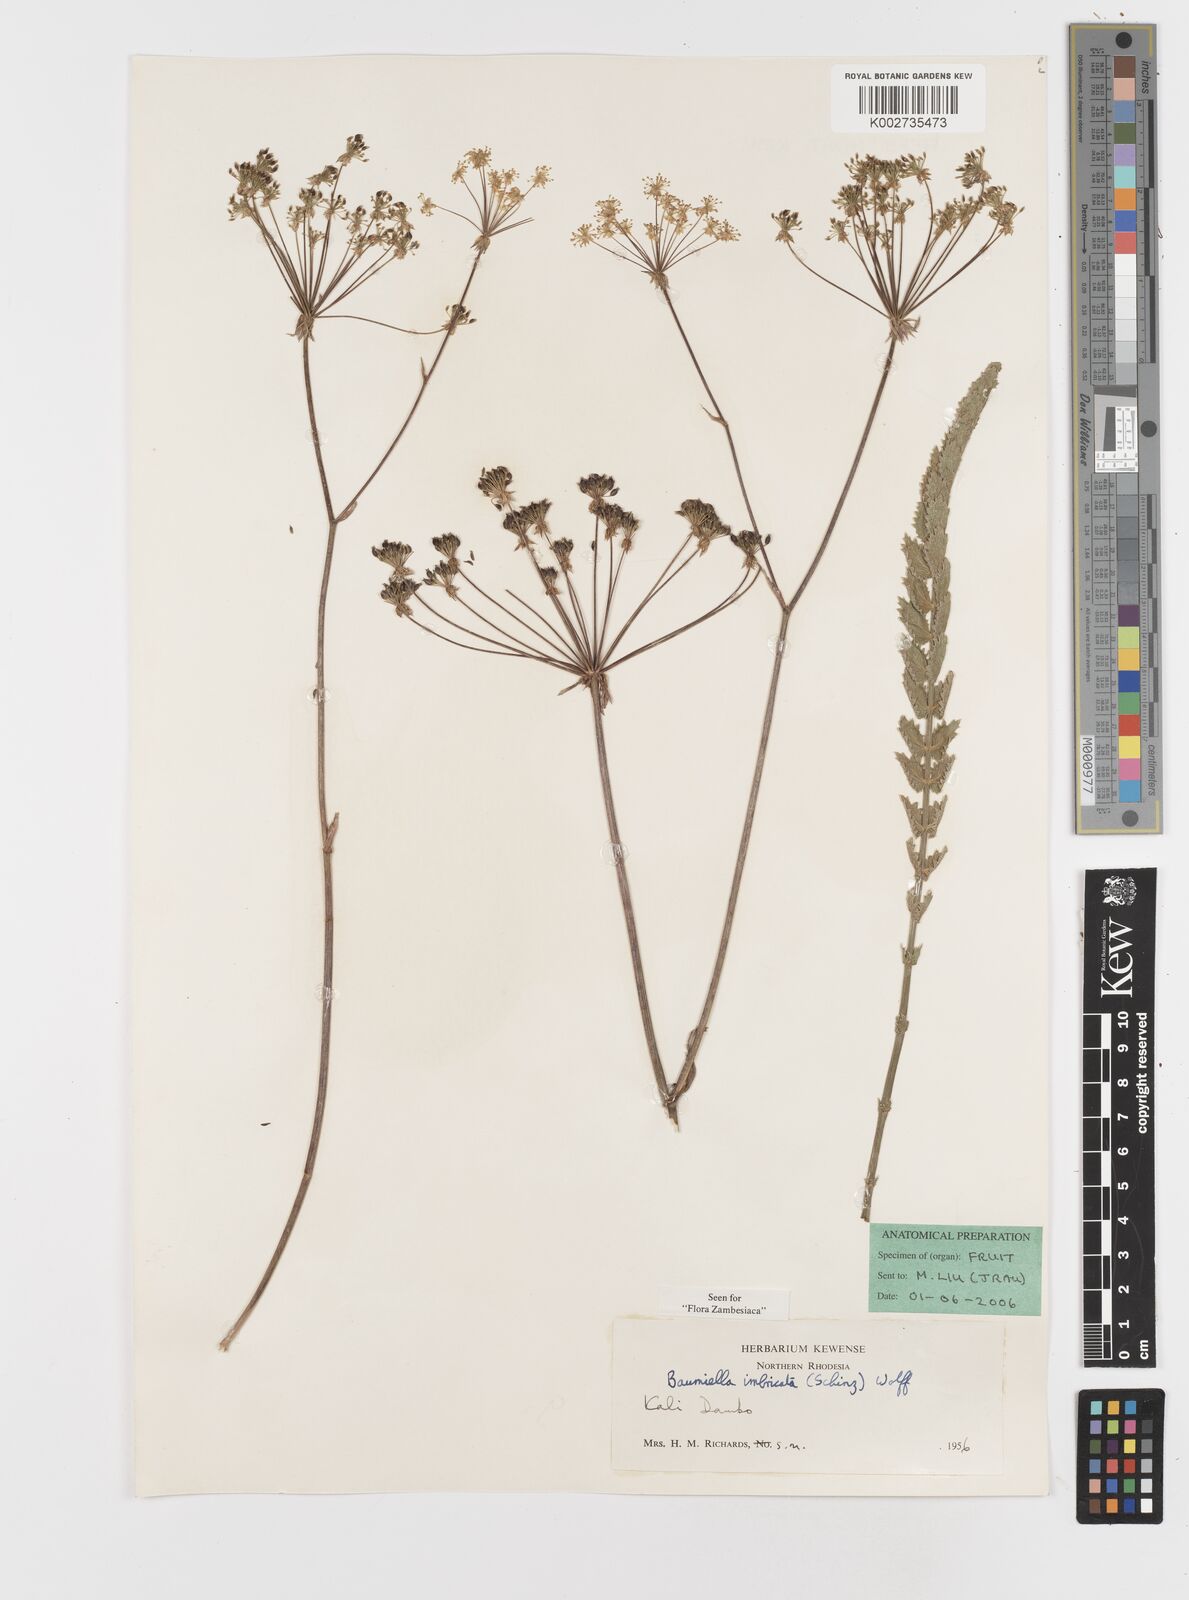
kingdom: Plantae
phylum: Tracheophyta
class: Magnoliopsida
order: Apiales
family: Apiaceae
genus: Berula
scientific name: Berula imbricata
